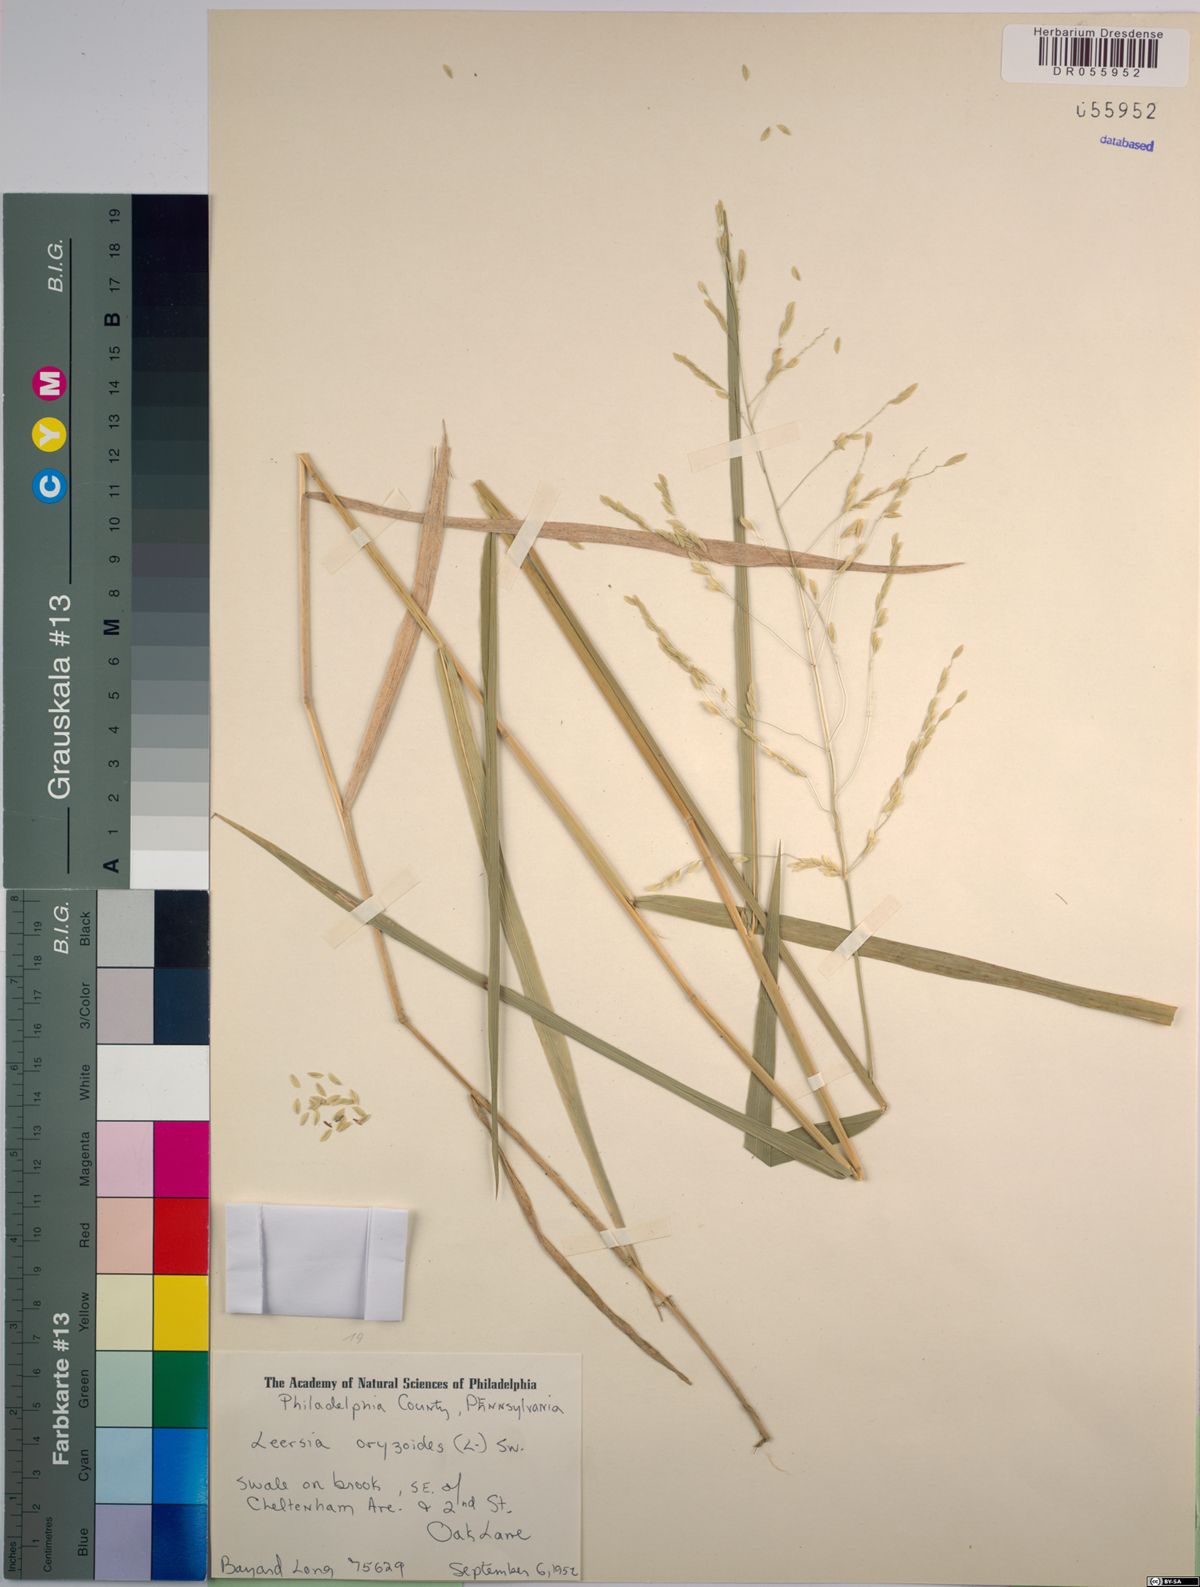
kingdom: Plantae
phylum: Tracheophyta
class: Liliopsida
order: Poales
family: Poaceae
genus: Leersia
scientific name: Leersia oryzoides
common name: Cut-grass
